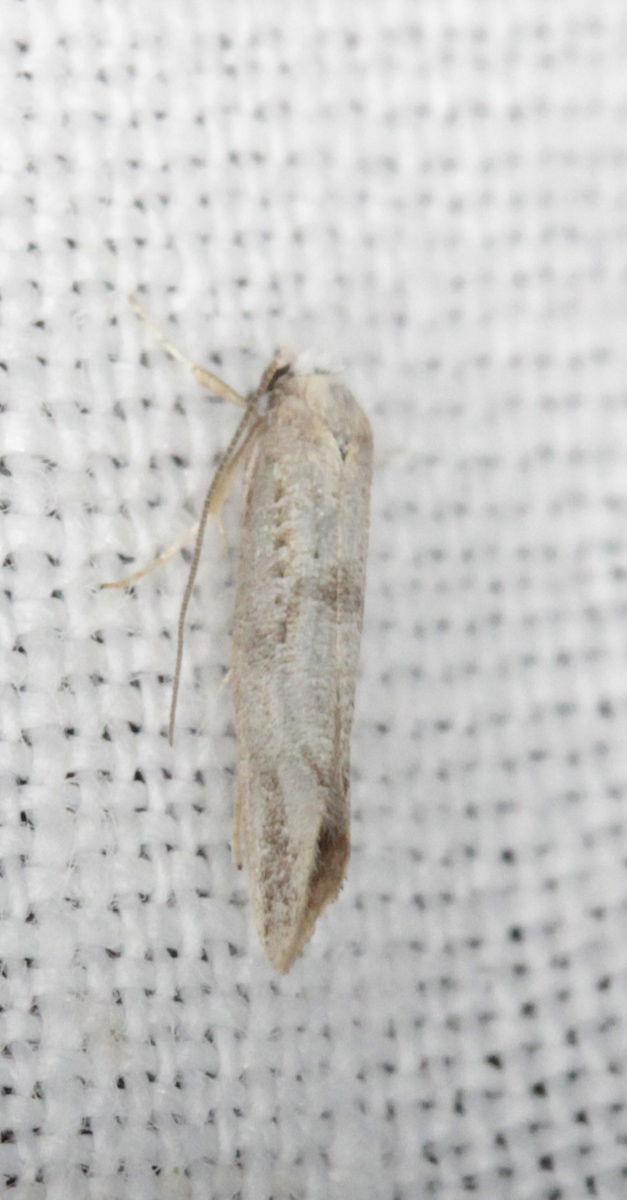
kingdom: Animalia
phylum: Arthropoda
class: Insecta
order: Lepidoptera
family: Tineidae
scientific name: Tineidae
